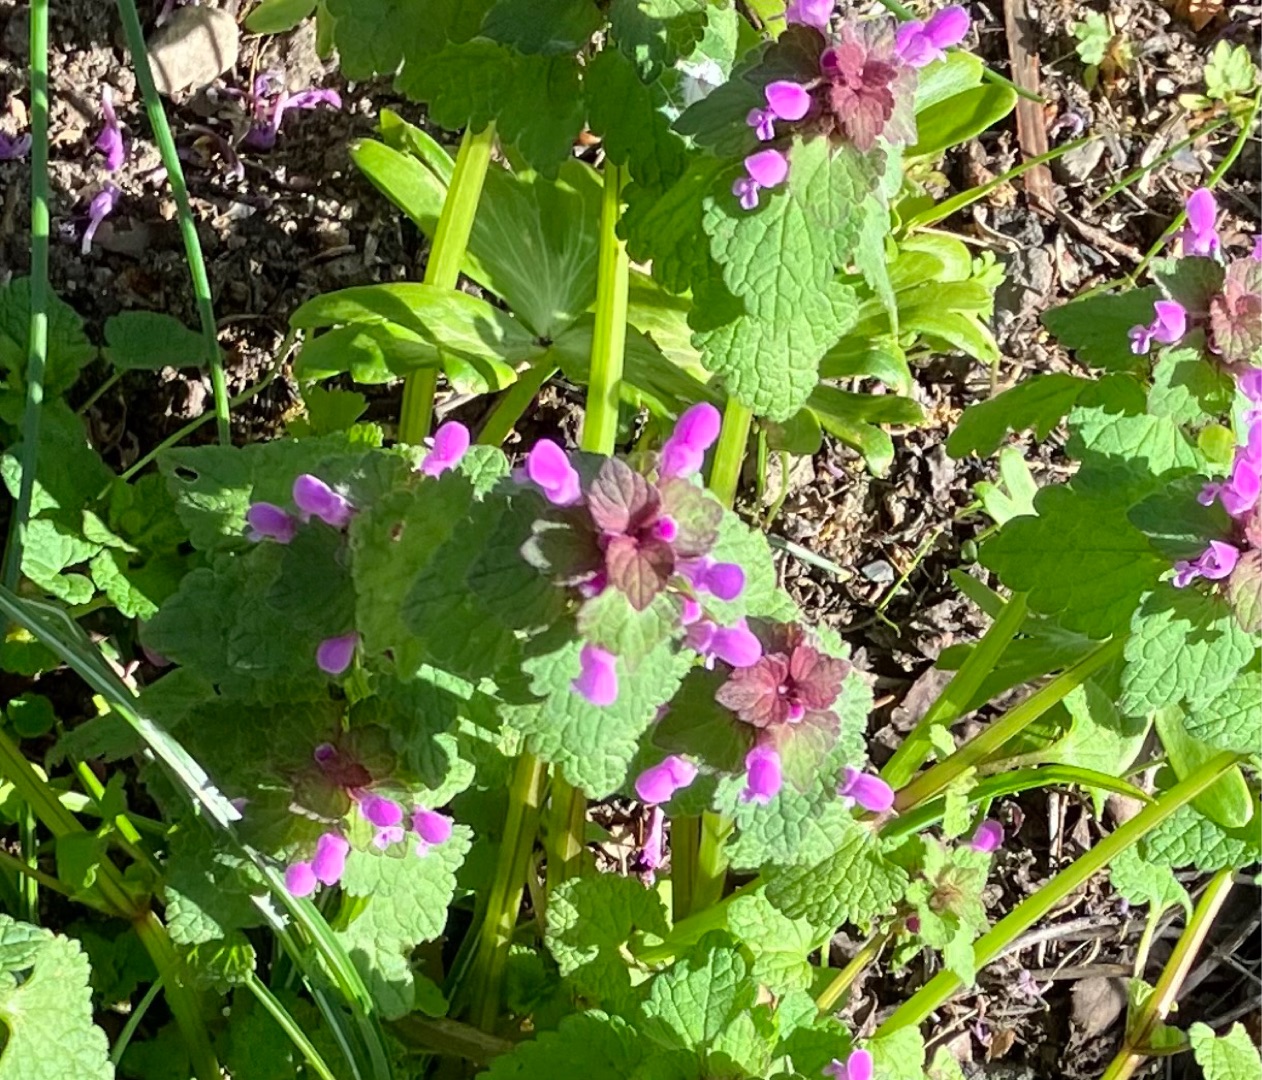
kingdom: Plantae
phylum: Tracheophyta
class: Magnoliopsida
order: Lamiales
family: Lamiaceae
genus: Lamium
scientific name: Lamium purpureum
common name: Rød tvetand
